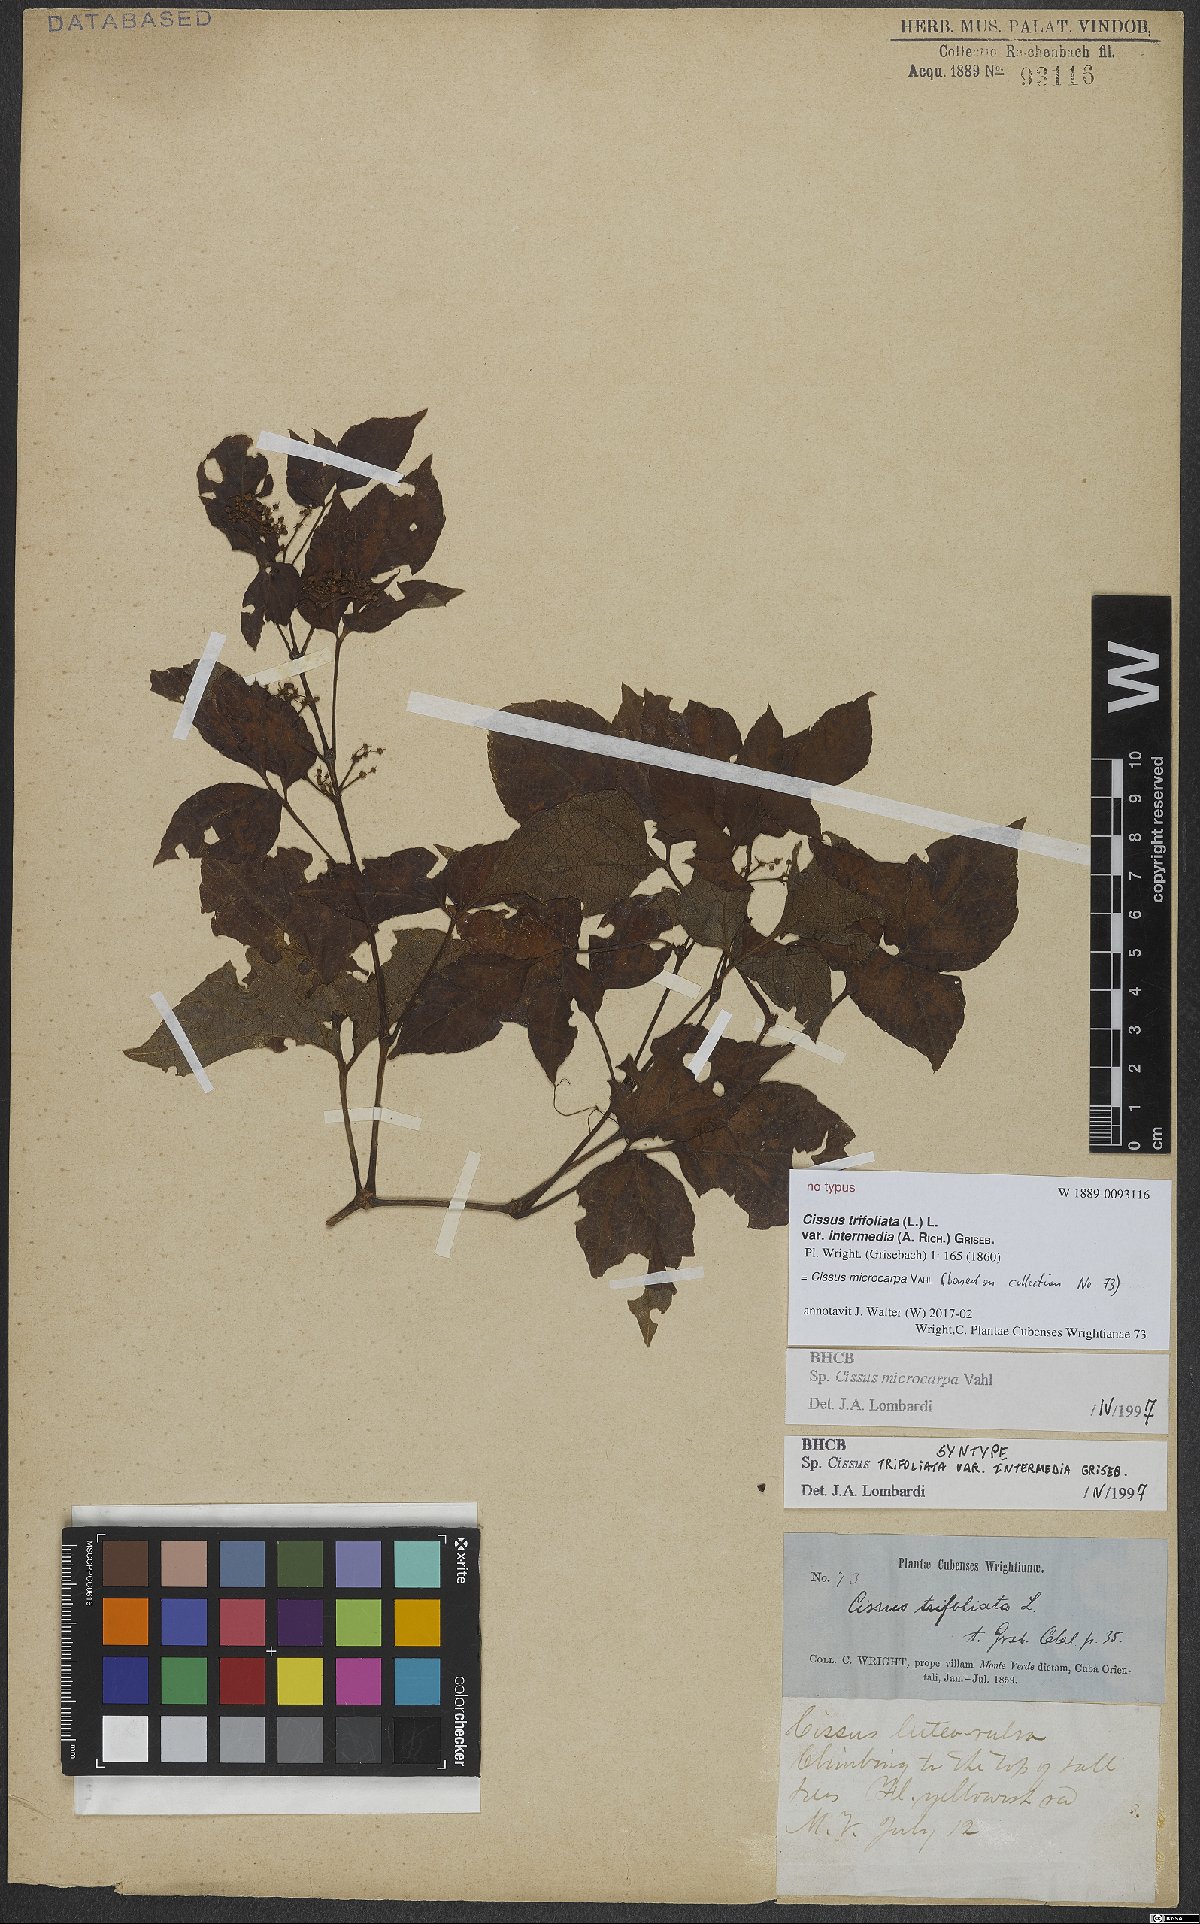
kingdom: Plantae
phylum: Tracheophyta
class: Magnoliopsida
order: Vitales
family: Vitaceae
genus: Cissus
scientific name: Cissus microcarpa
